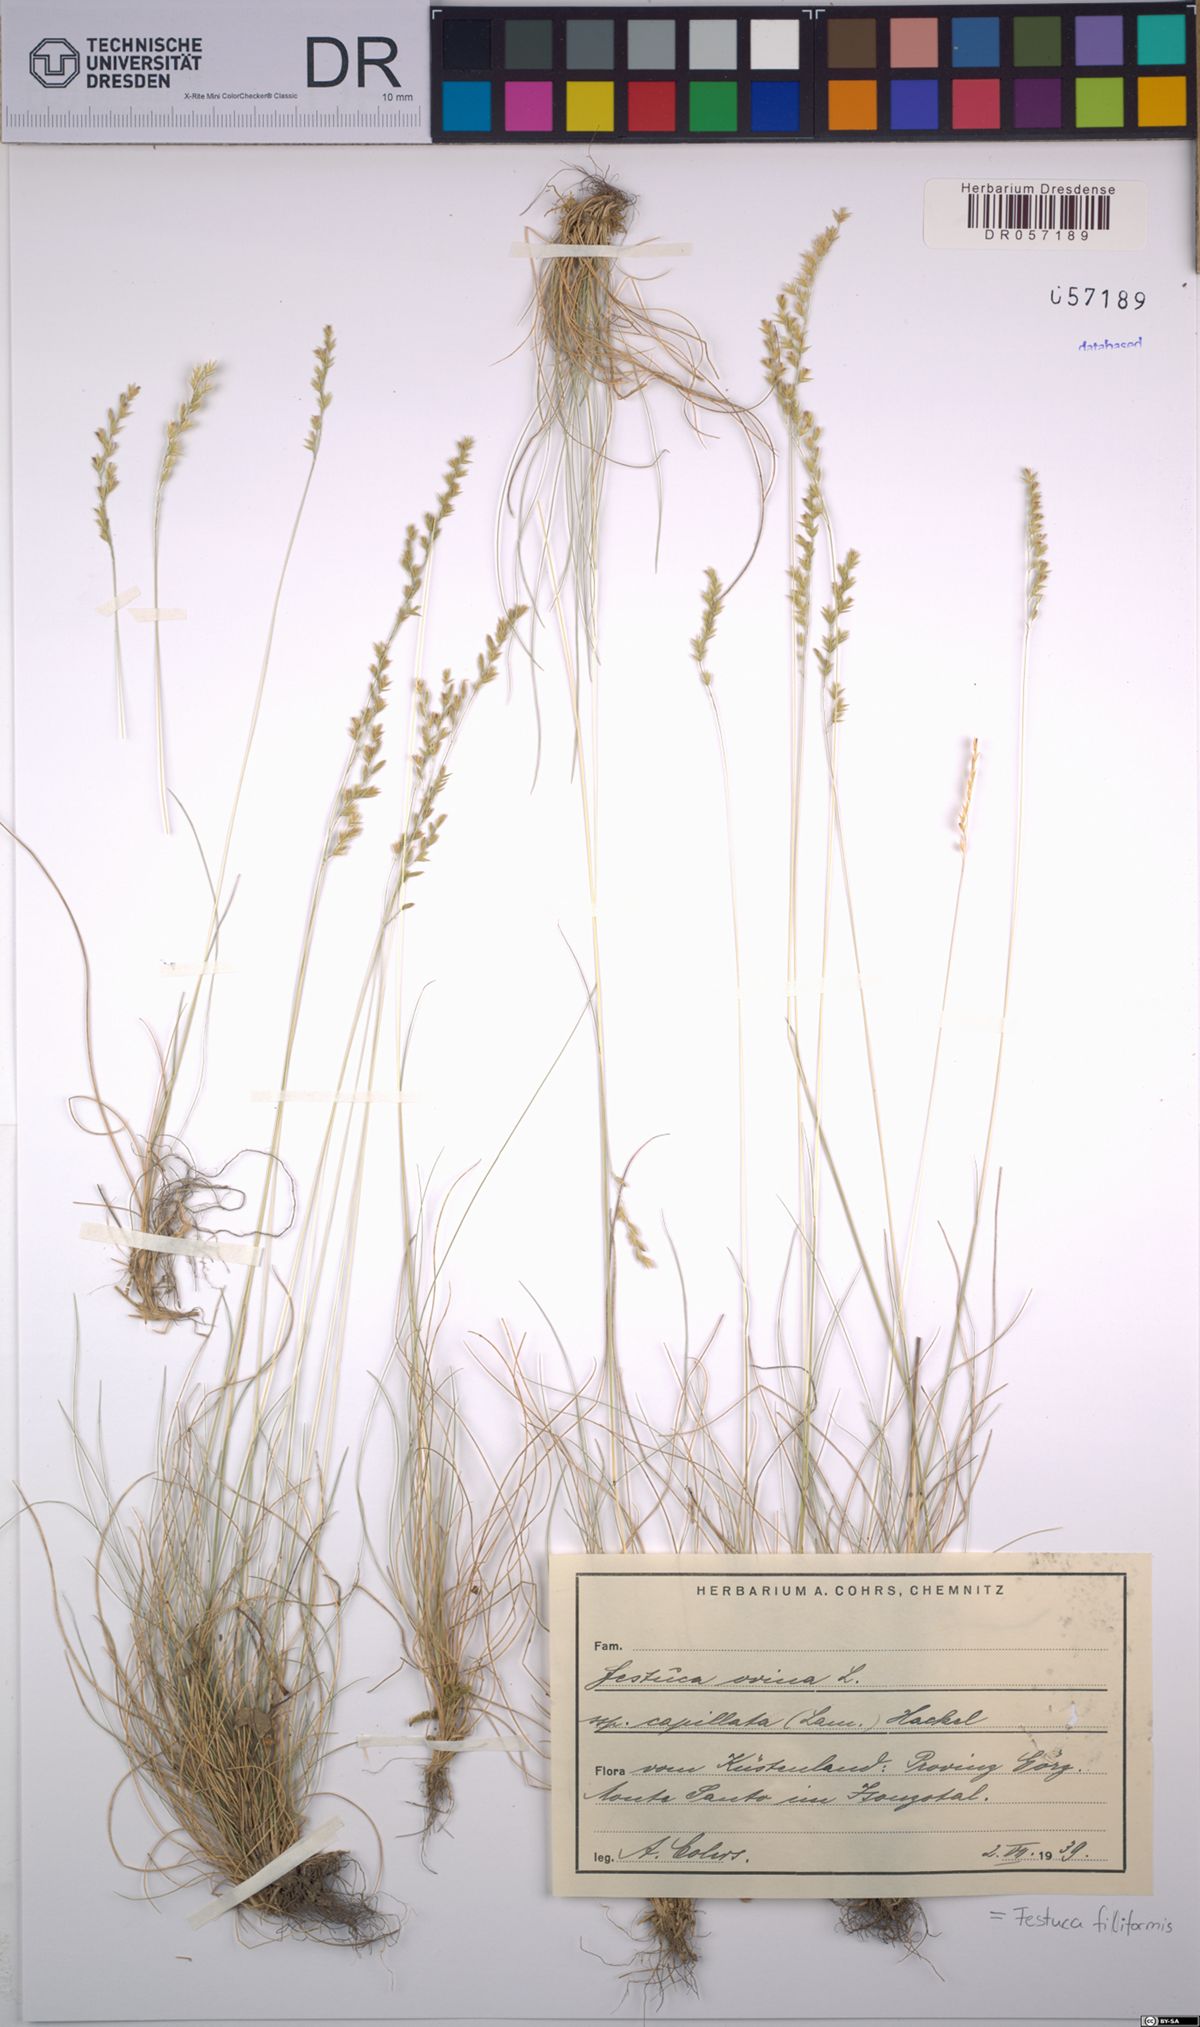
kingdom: Plantae
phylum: Tracheophyta
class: Liliopsida
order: Poales
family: Poaceae
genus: Festuca
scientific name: Festuca filiformis
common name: Fine-leaved sheep's-fescue
